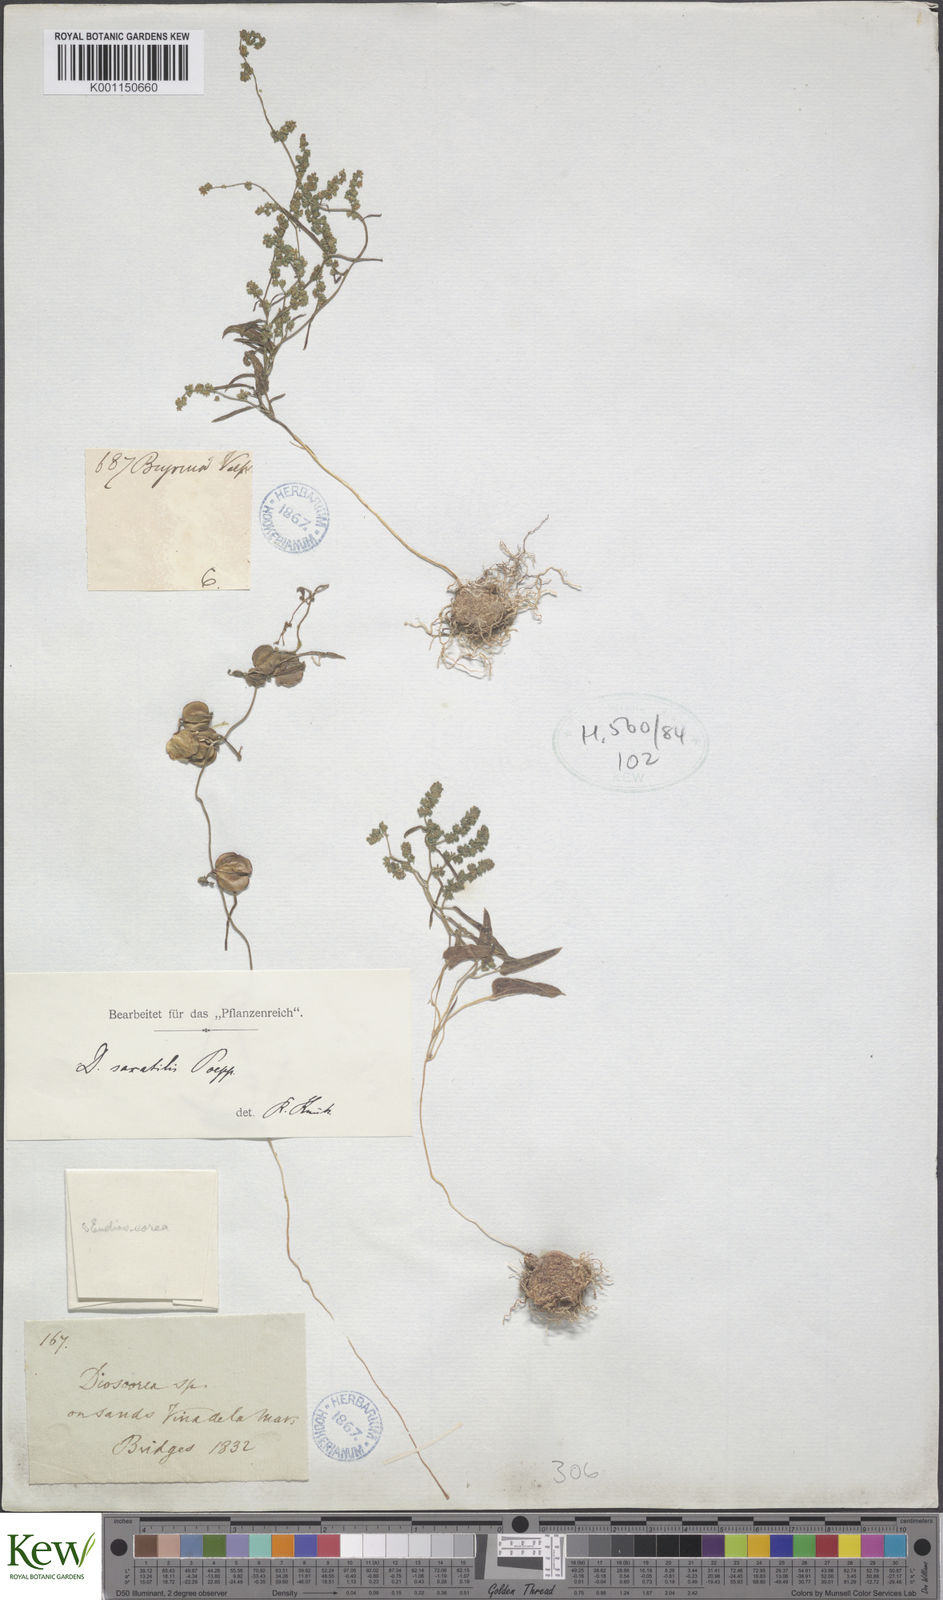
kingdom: Plantae
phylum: Tracheophyta
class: Liliopsida
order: Dioscoreales
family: Dioscoreaceae
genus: Dioscorea
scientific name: Dioscorea saxatilis
